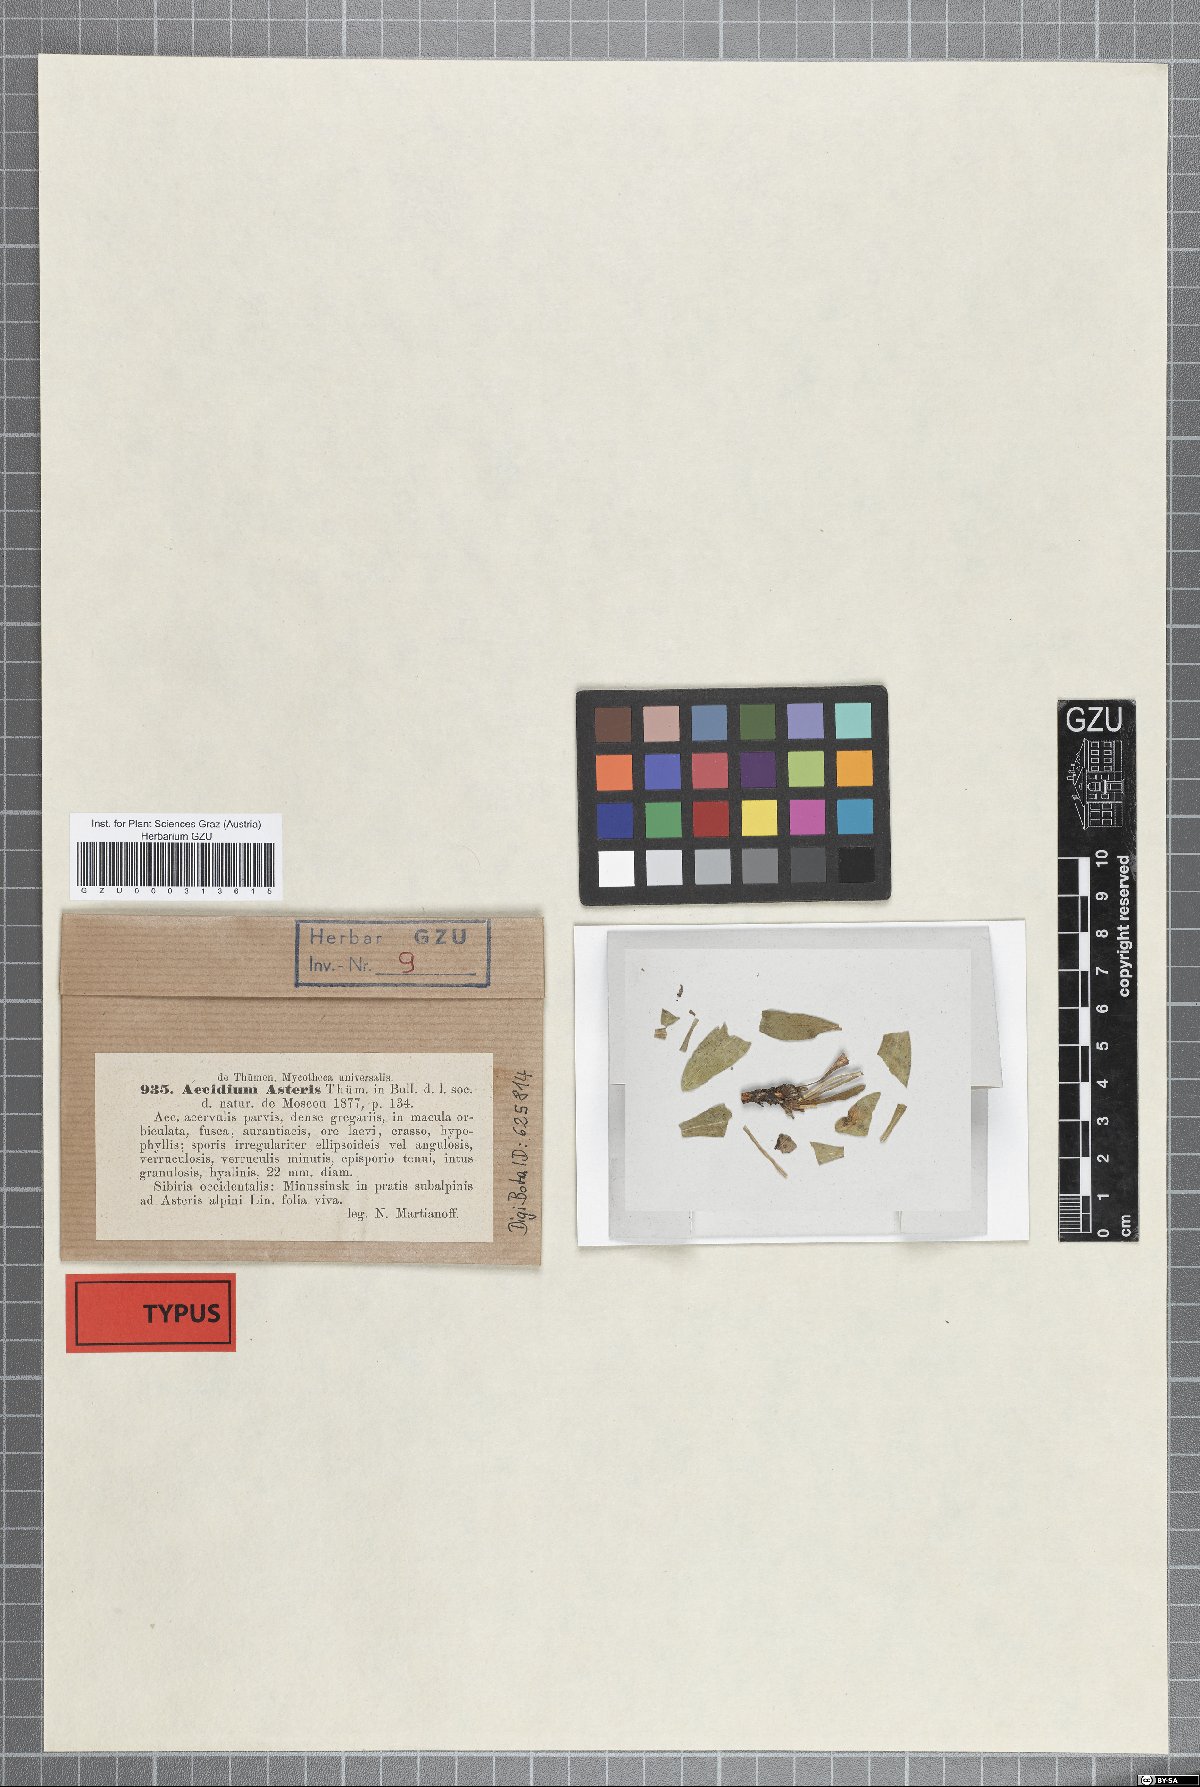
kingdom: Fungi
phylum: Basidiomycota
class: Pucciniomycetes
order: Pucciniales
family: Pucciniaceae
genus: Aecidium
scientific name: Aecidium
